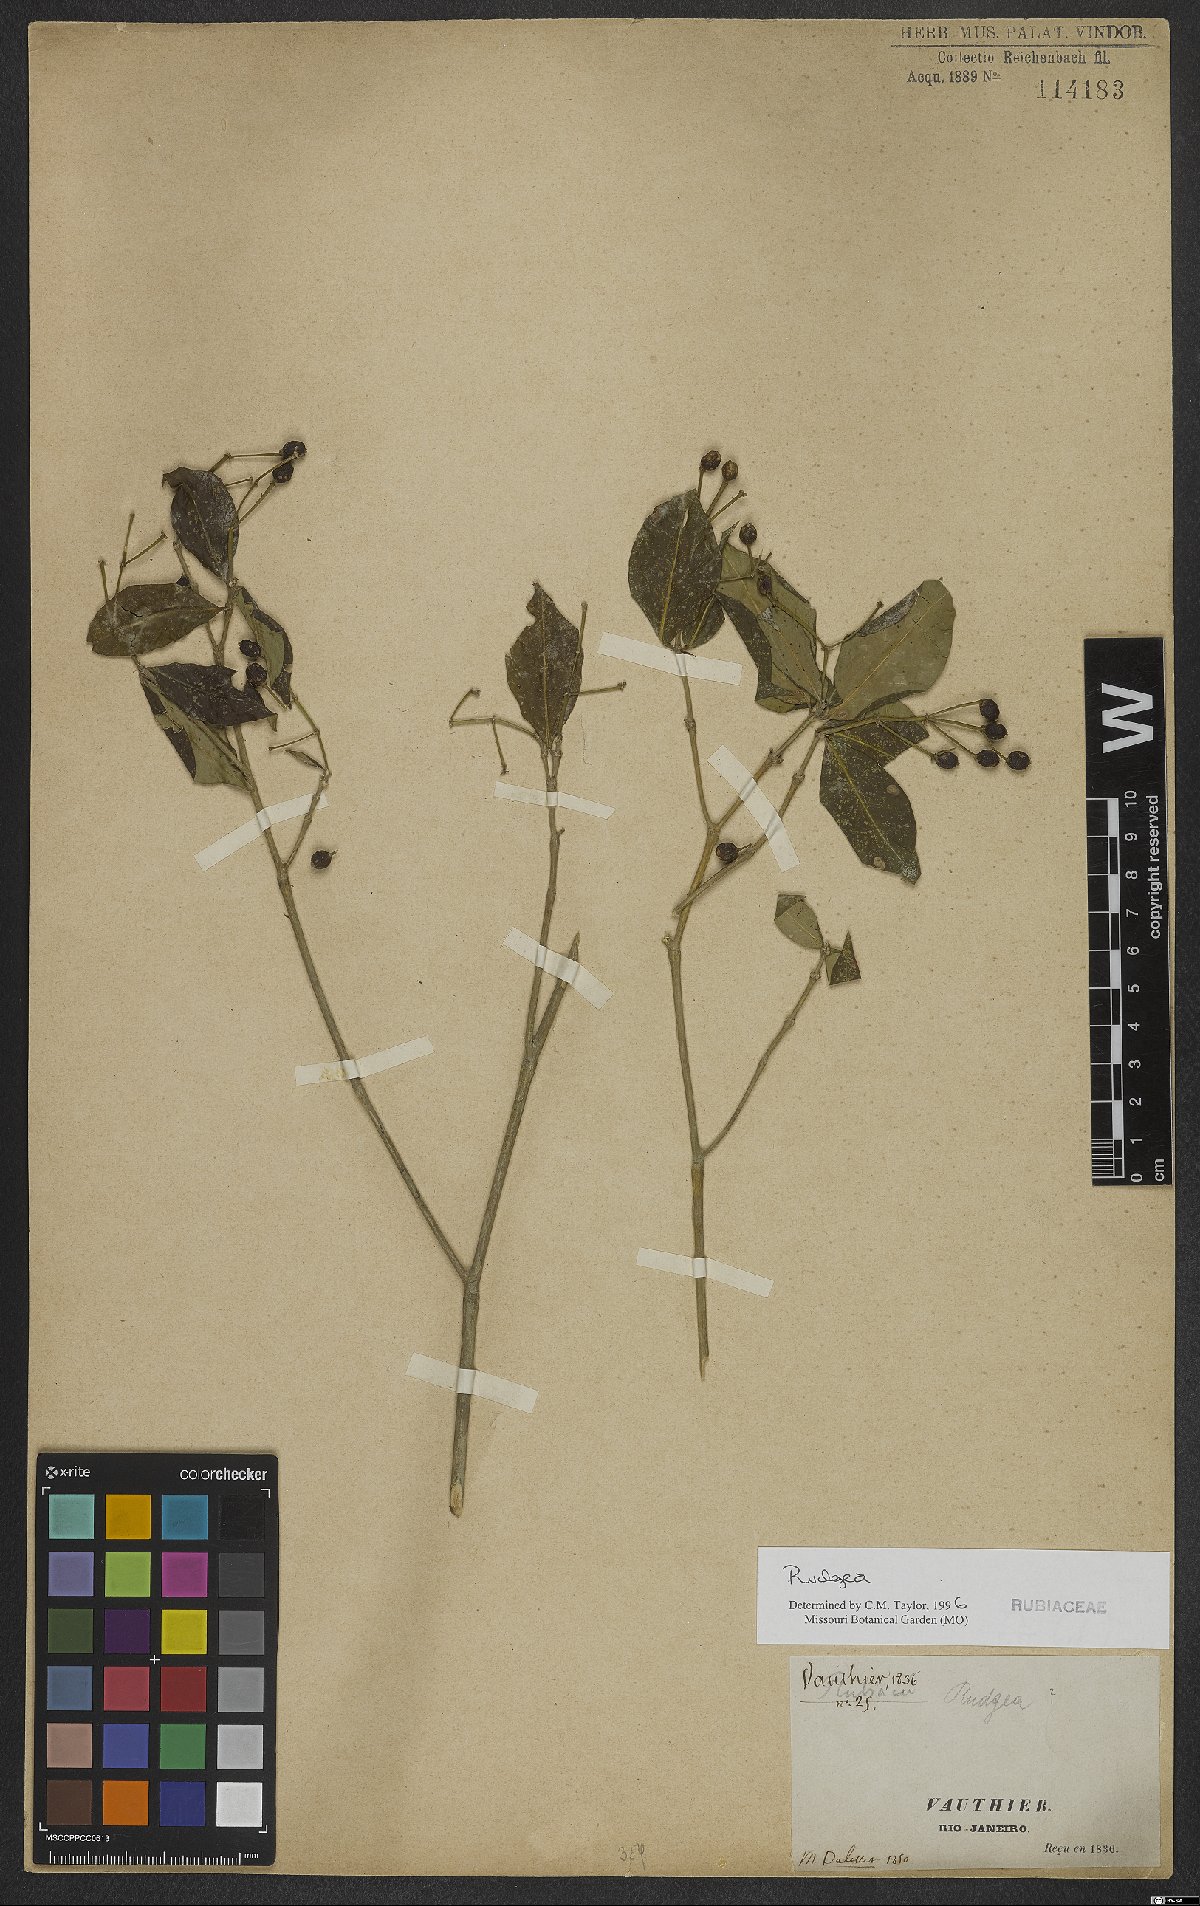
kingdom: Plantae
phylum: Tracheophyta
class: Magnoliopsida
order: Gentianales
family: Rubiaceae
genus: Rudgea
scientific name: Rudgea
